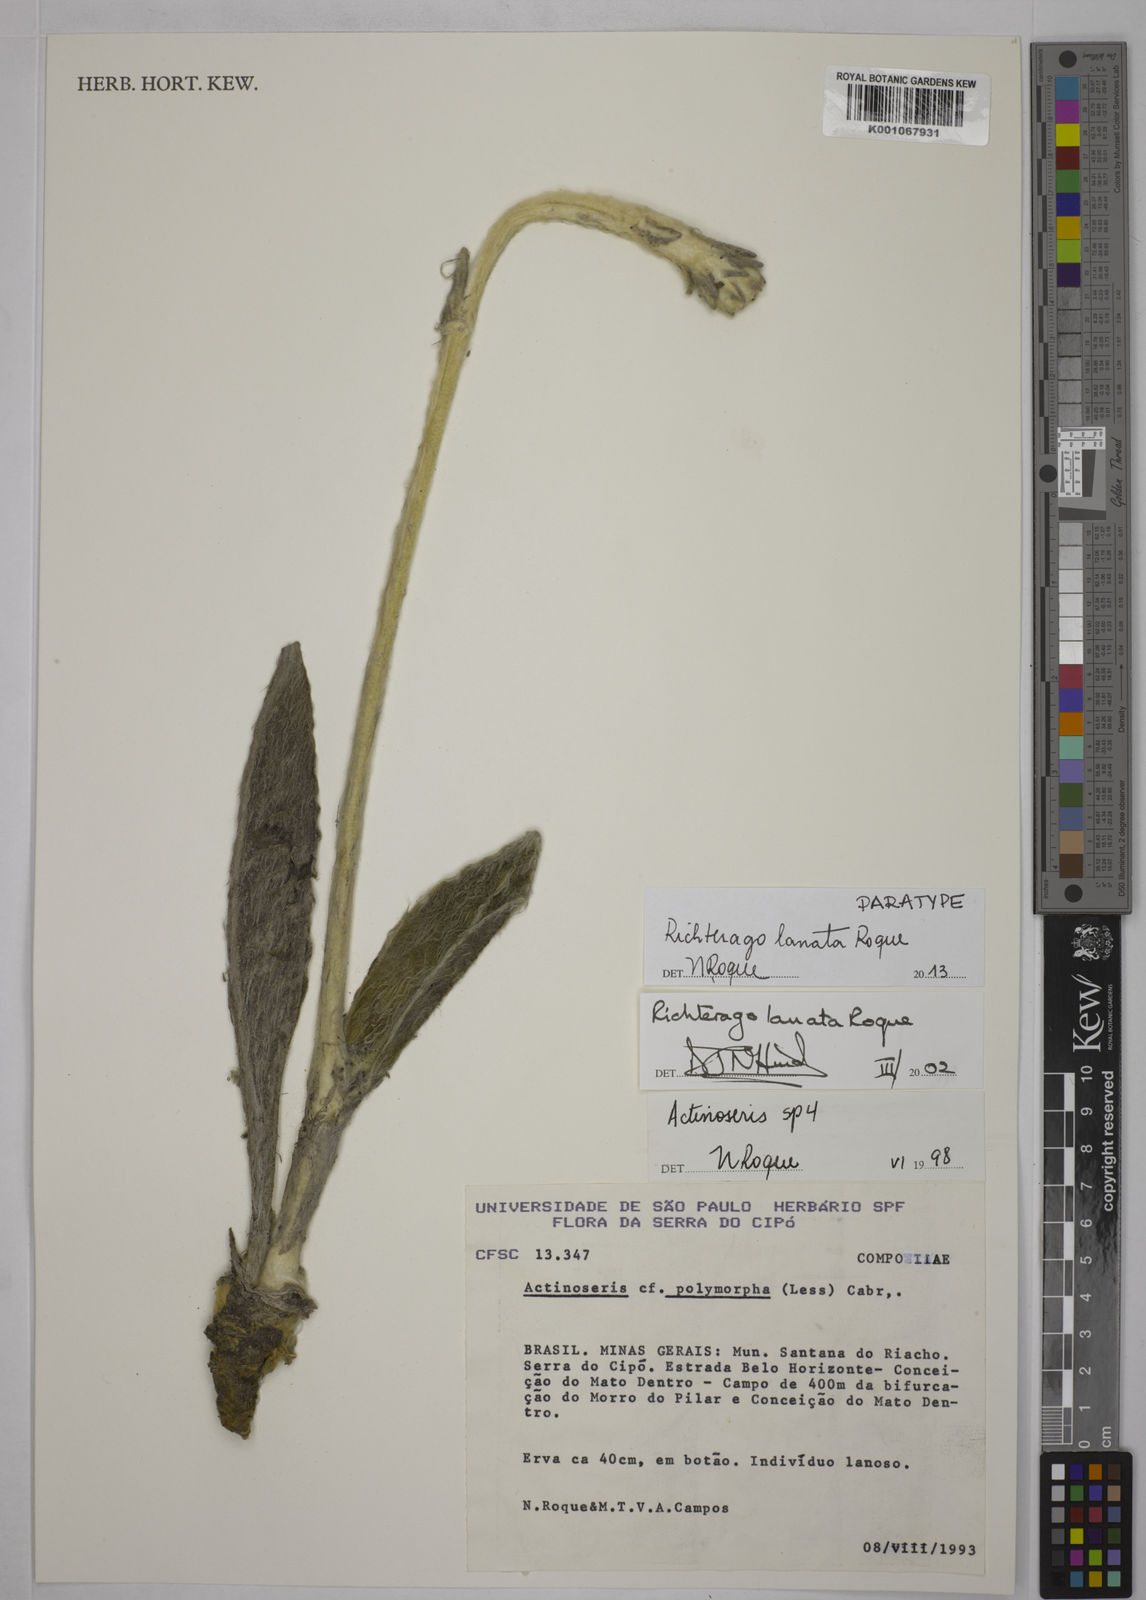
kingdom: Plantae
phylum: Tracheophyta
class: Magnoliopsida
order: Asterales
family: Asteraceae
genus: Richterago
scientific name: Richterago lanata
